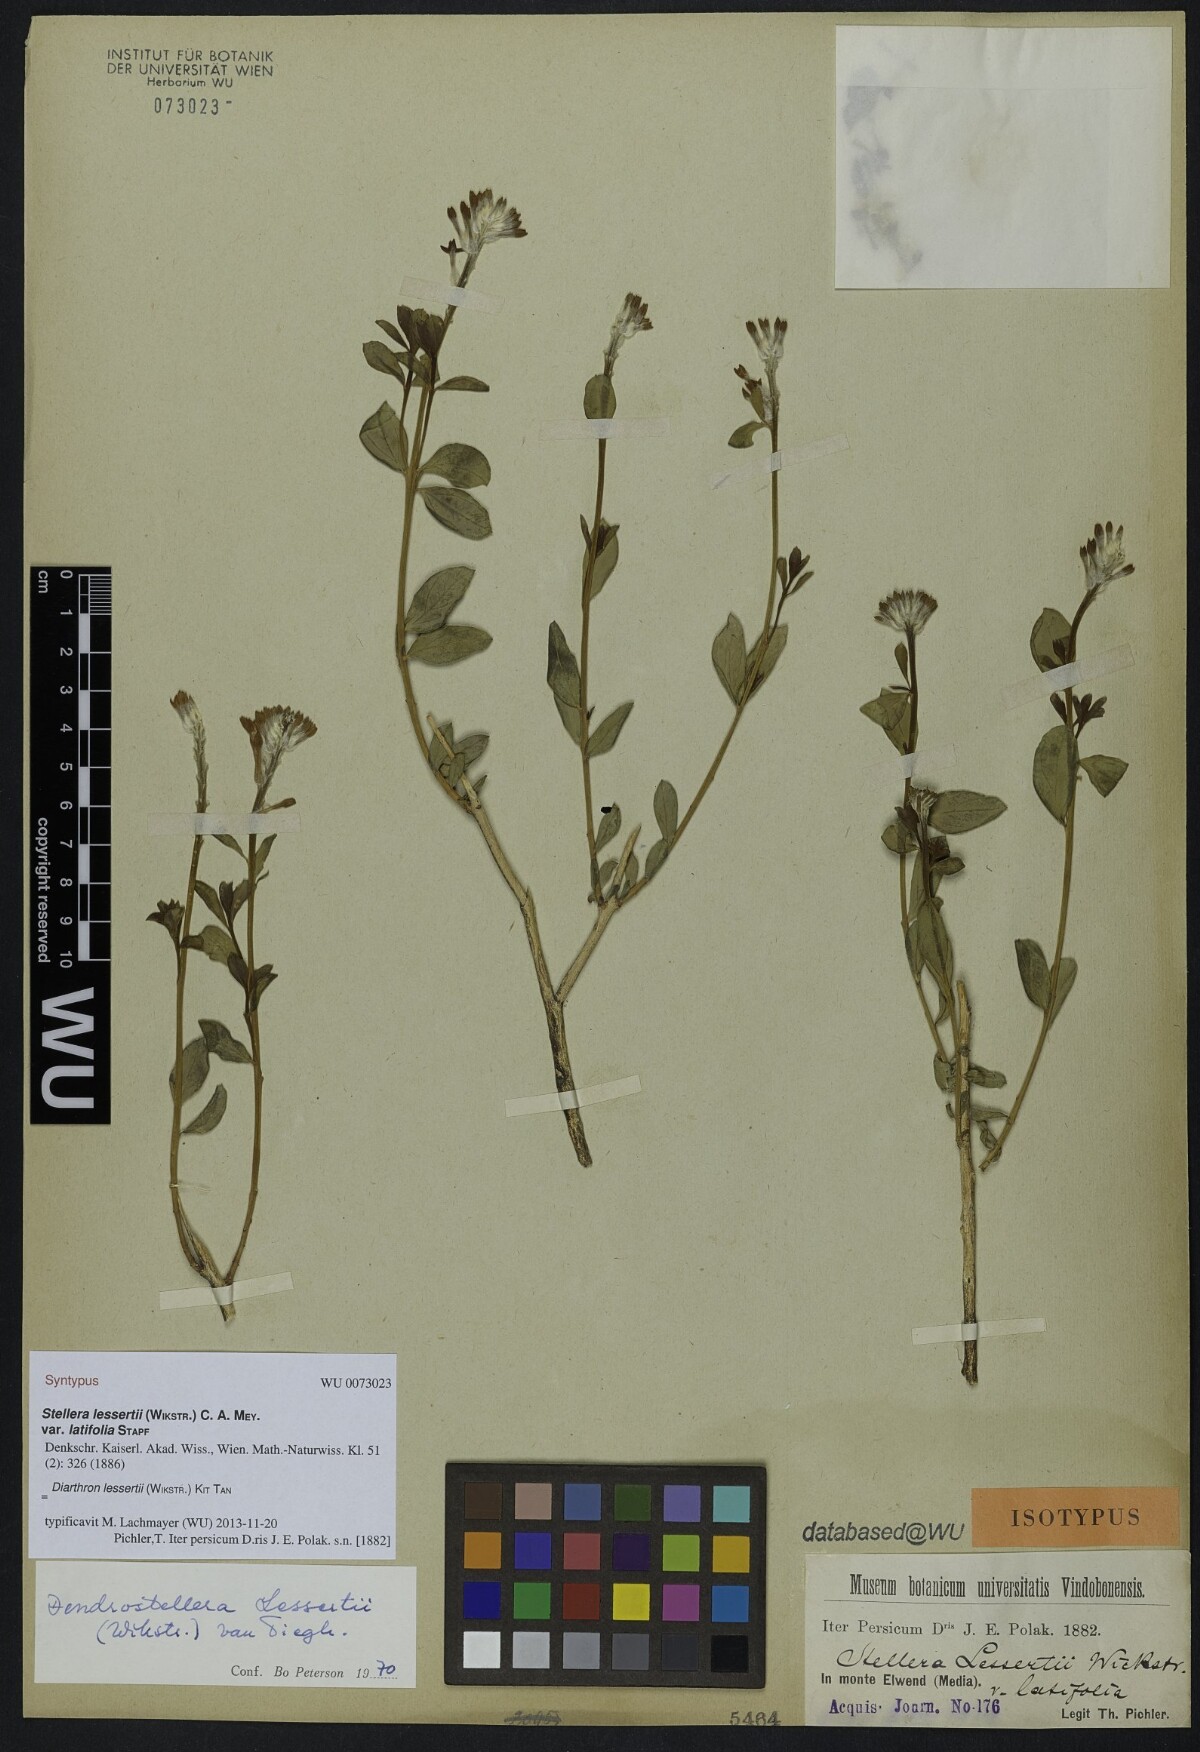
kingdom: Plantae
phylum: Tracheophyta
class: Magnoliopsida
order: Malvales
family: Thymelaeaceae
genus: Diarthron
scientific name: Diarthron lessertii
